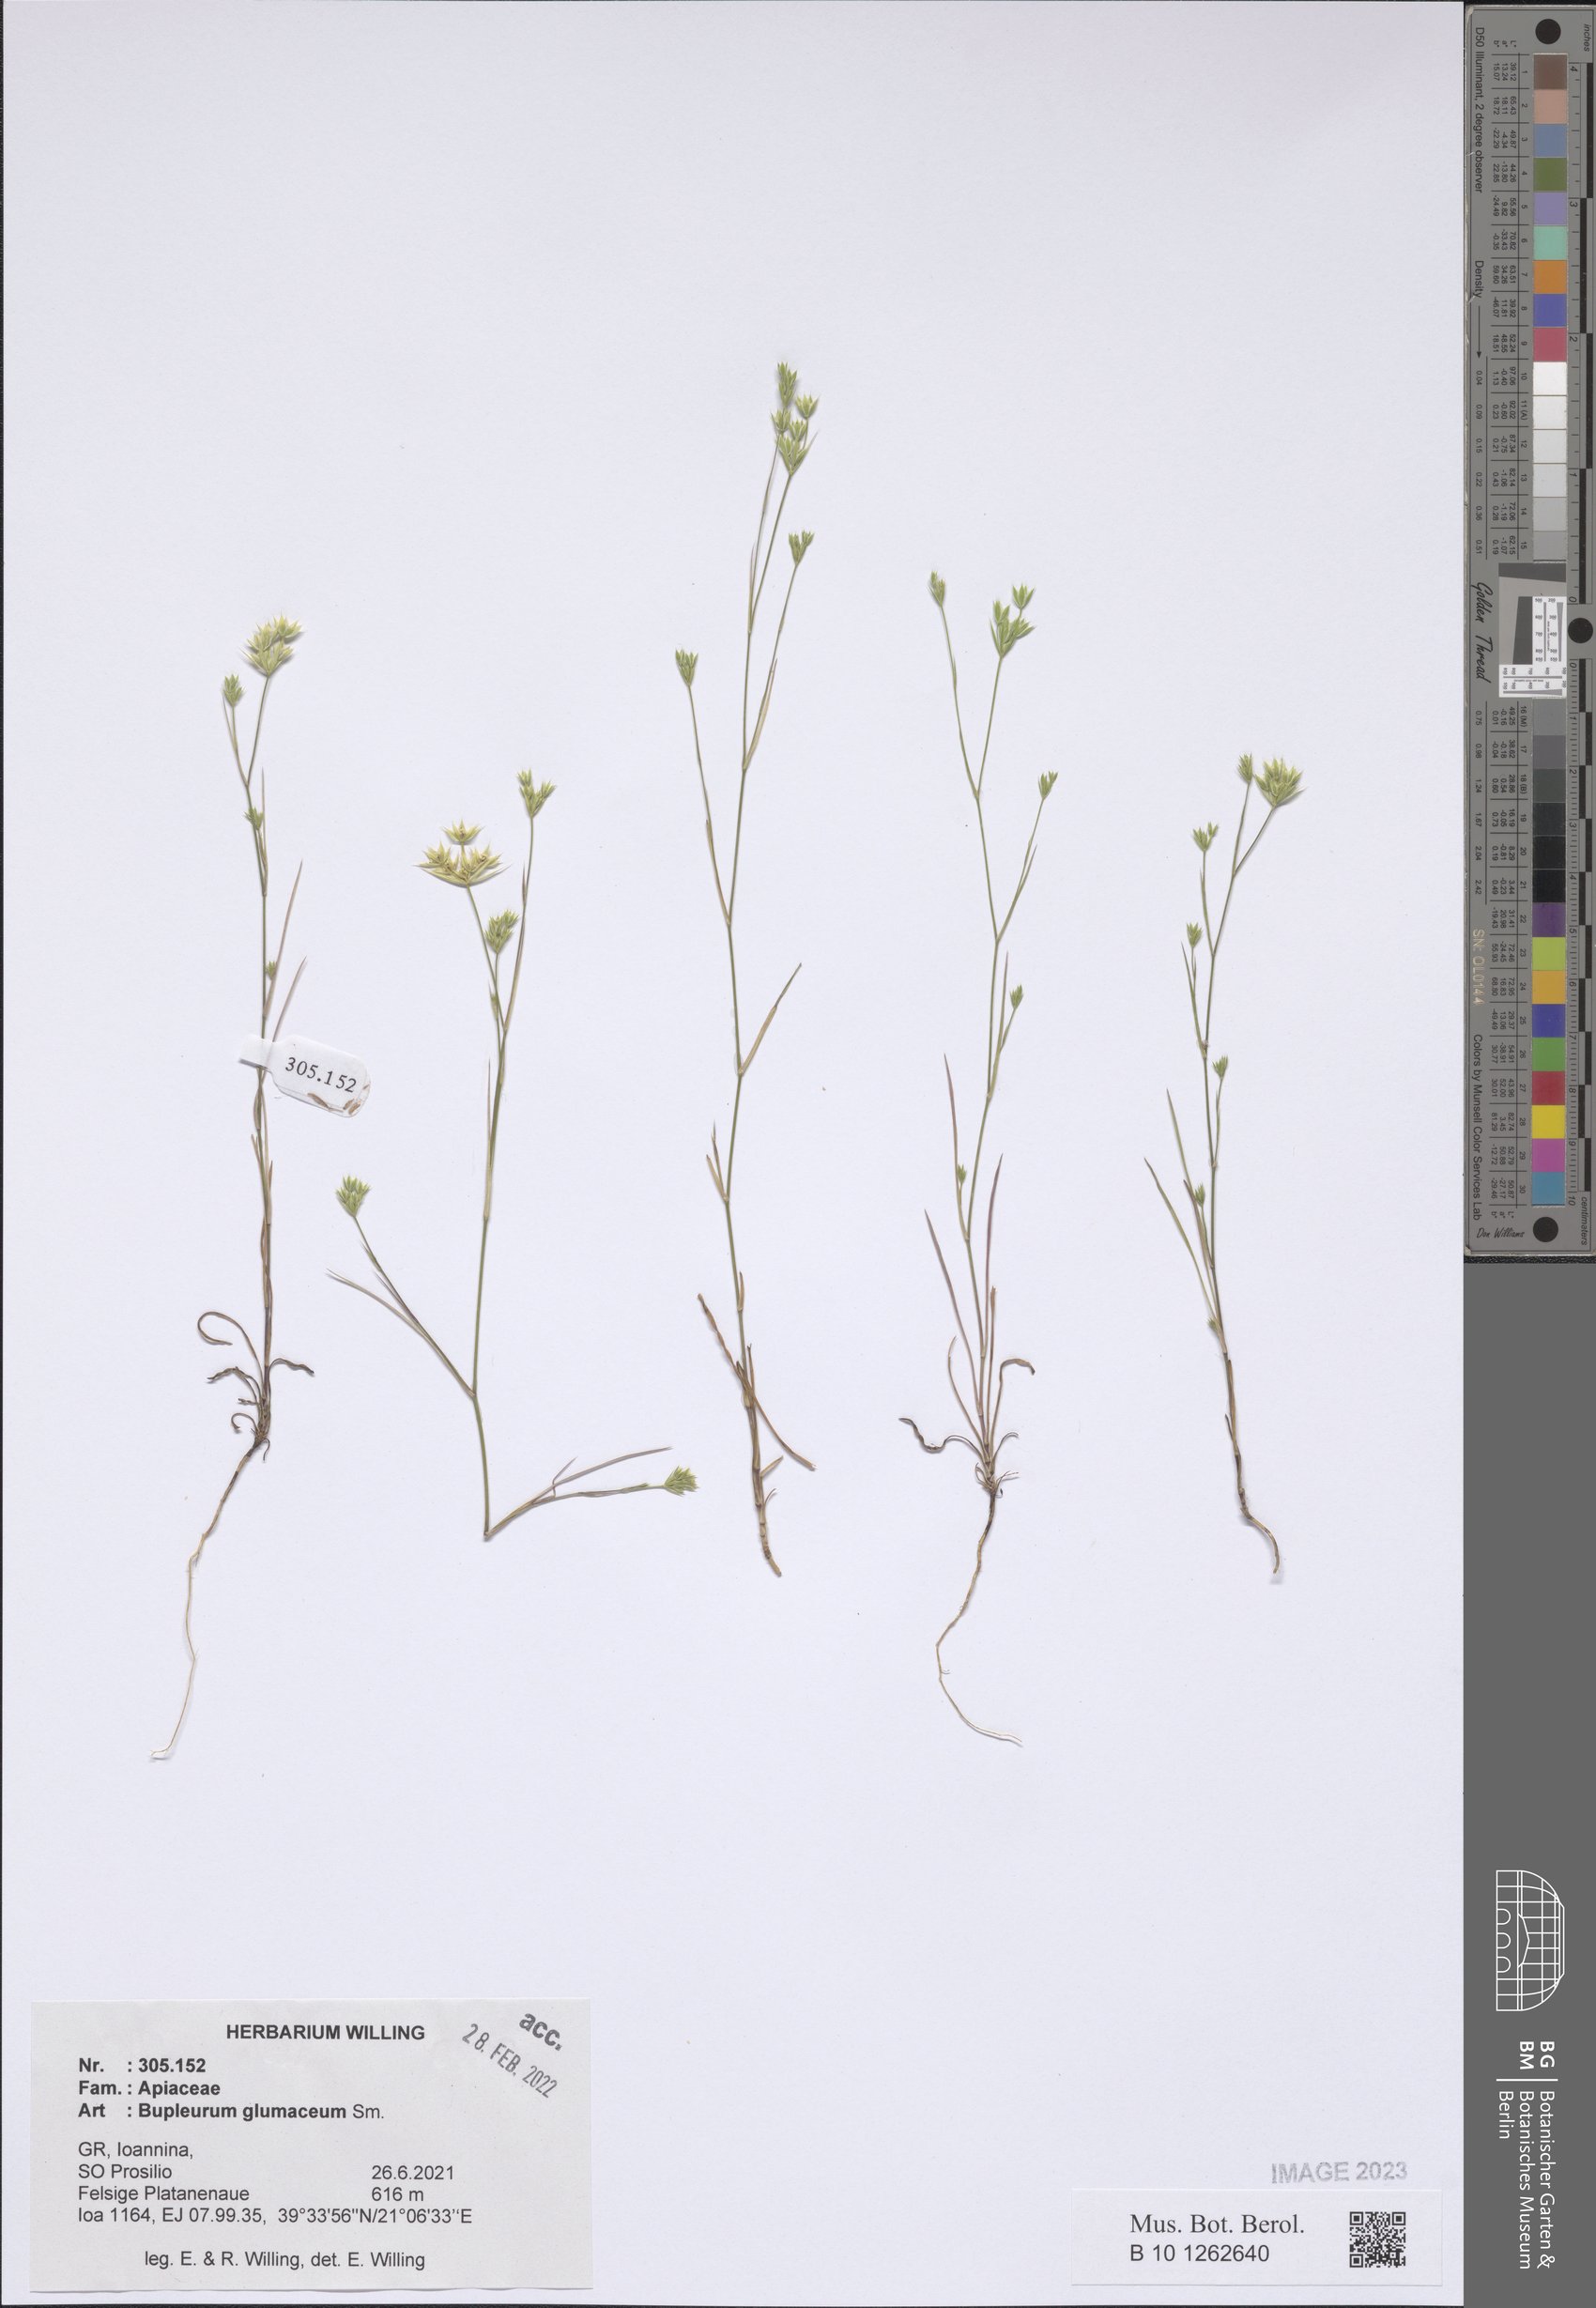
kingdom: Plantae
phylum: Tracheophyta
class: Magnoliopsida
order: Apiales
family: Apiaceae
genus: Bupleurum
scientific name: Bupleurum glumaceum
